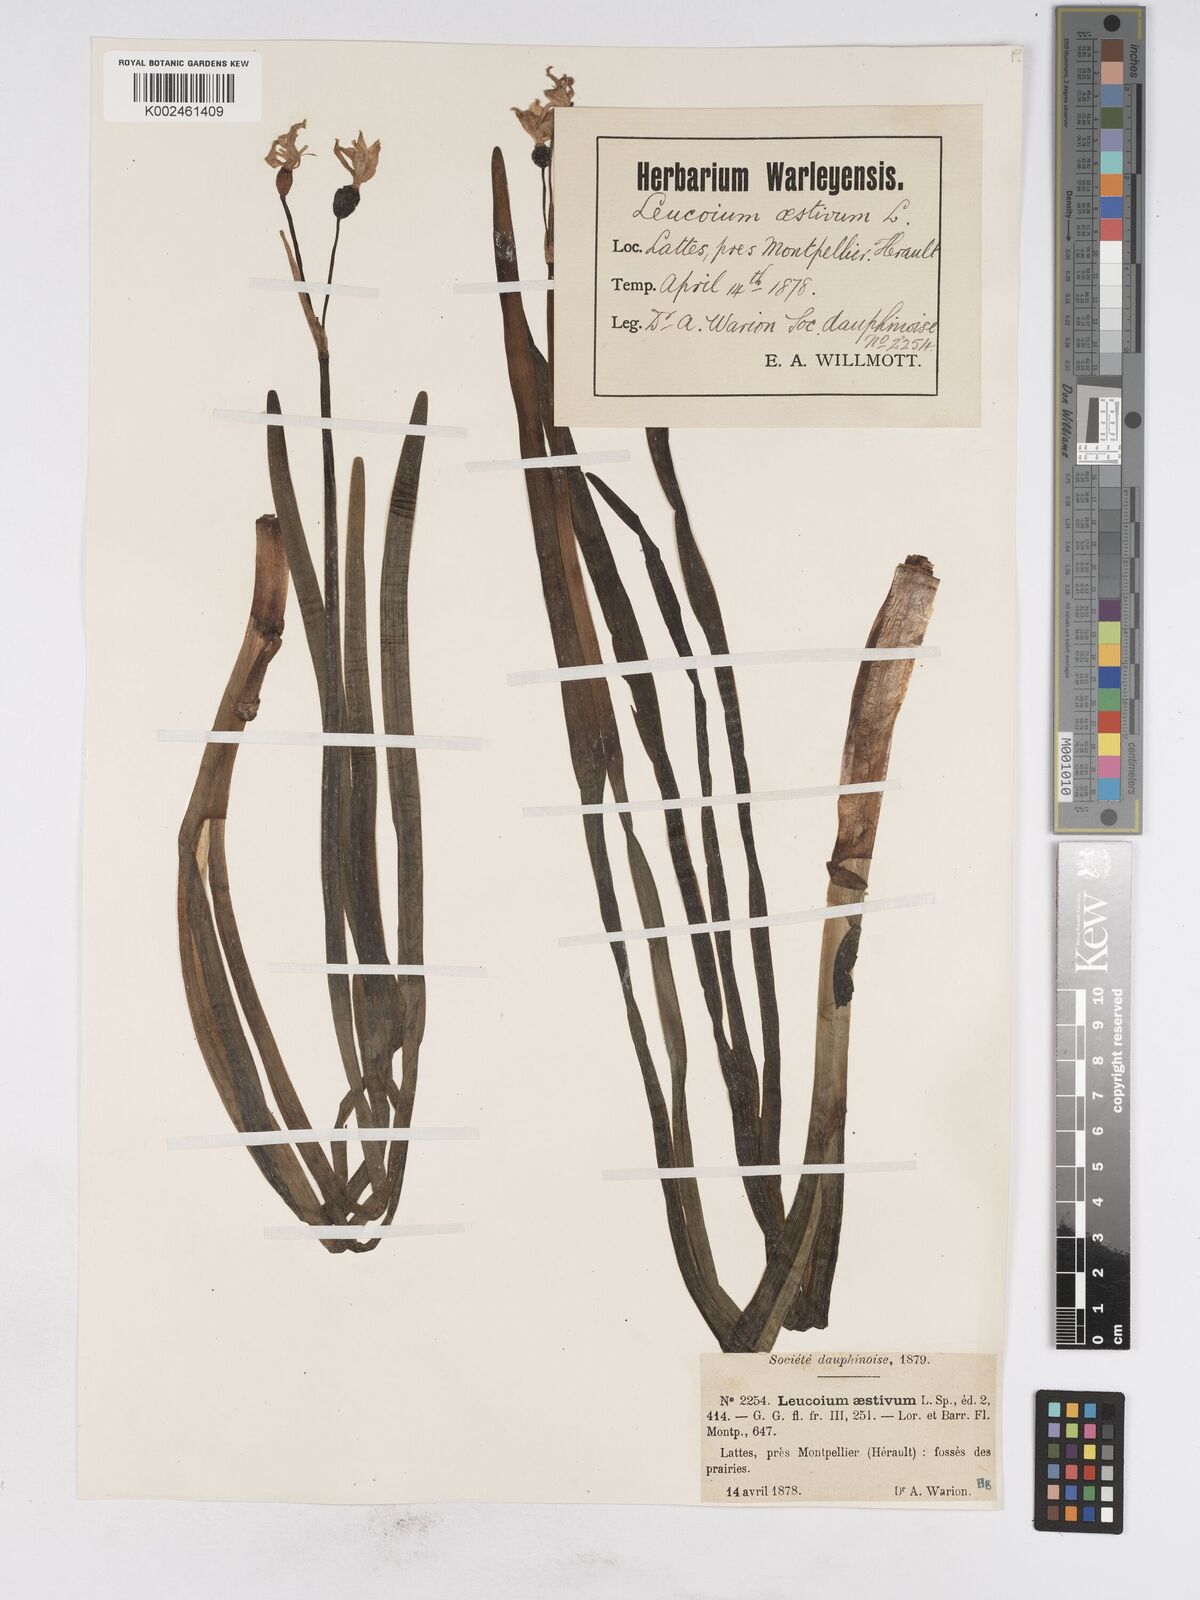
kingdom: Plantae
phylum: Tracheophyta
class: Liliopsida
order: Asparagales
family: Amaryllidaceae
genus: Leucojum
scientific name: Leucojum aestivum
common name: Summer snowflake
